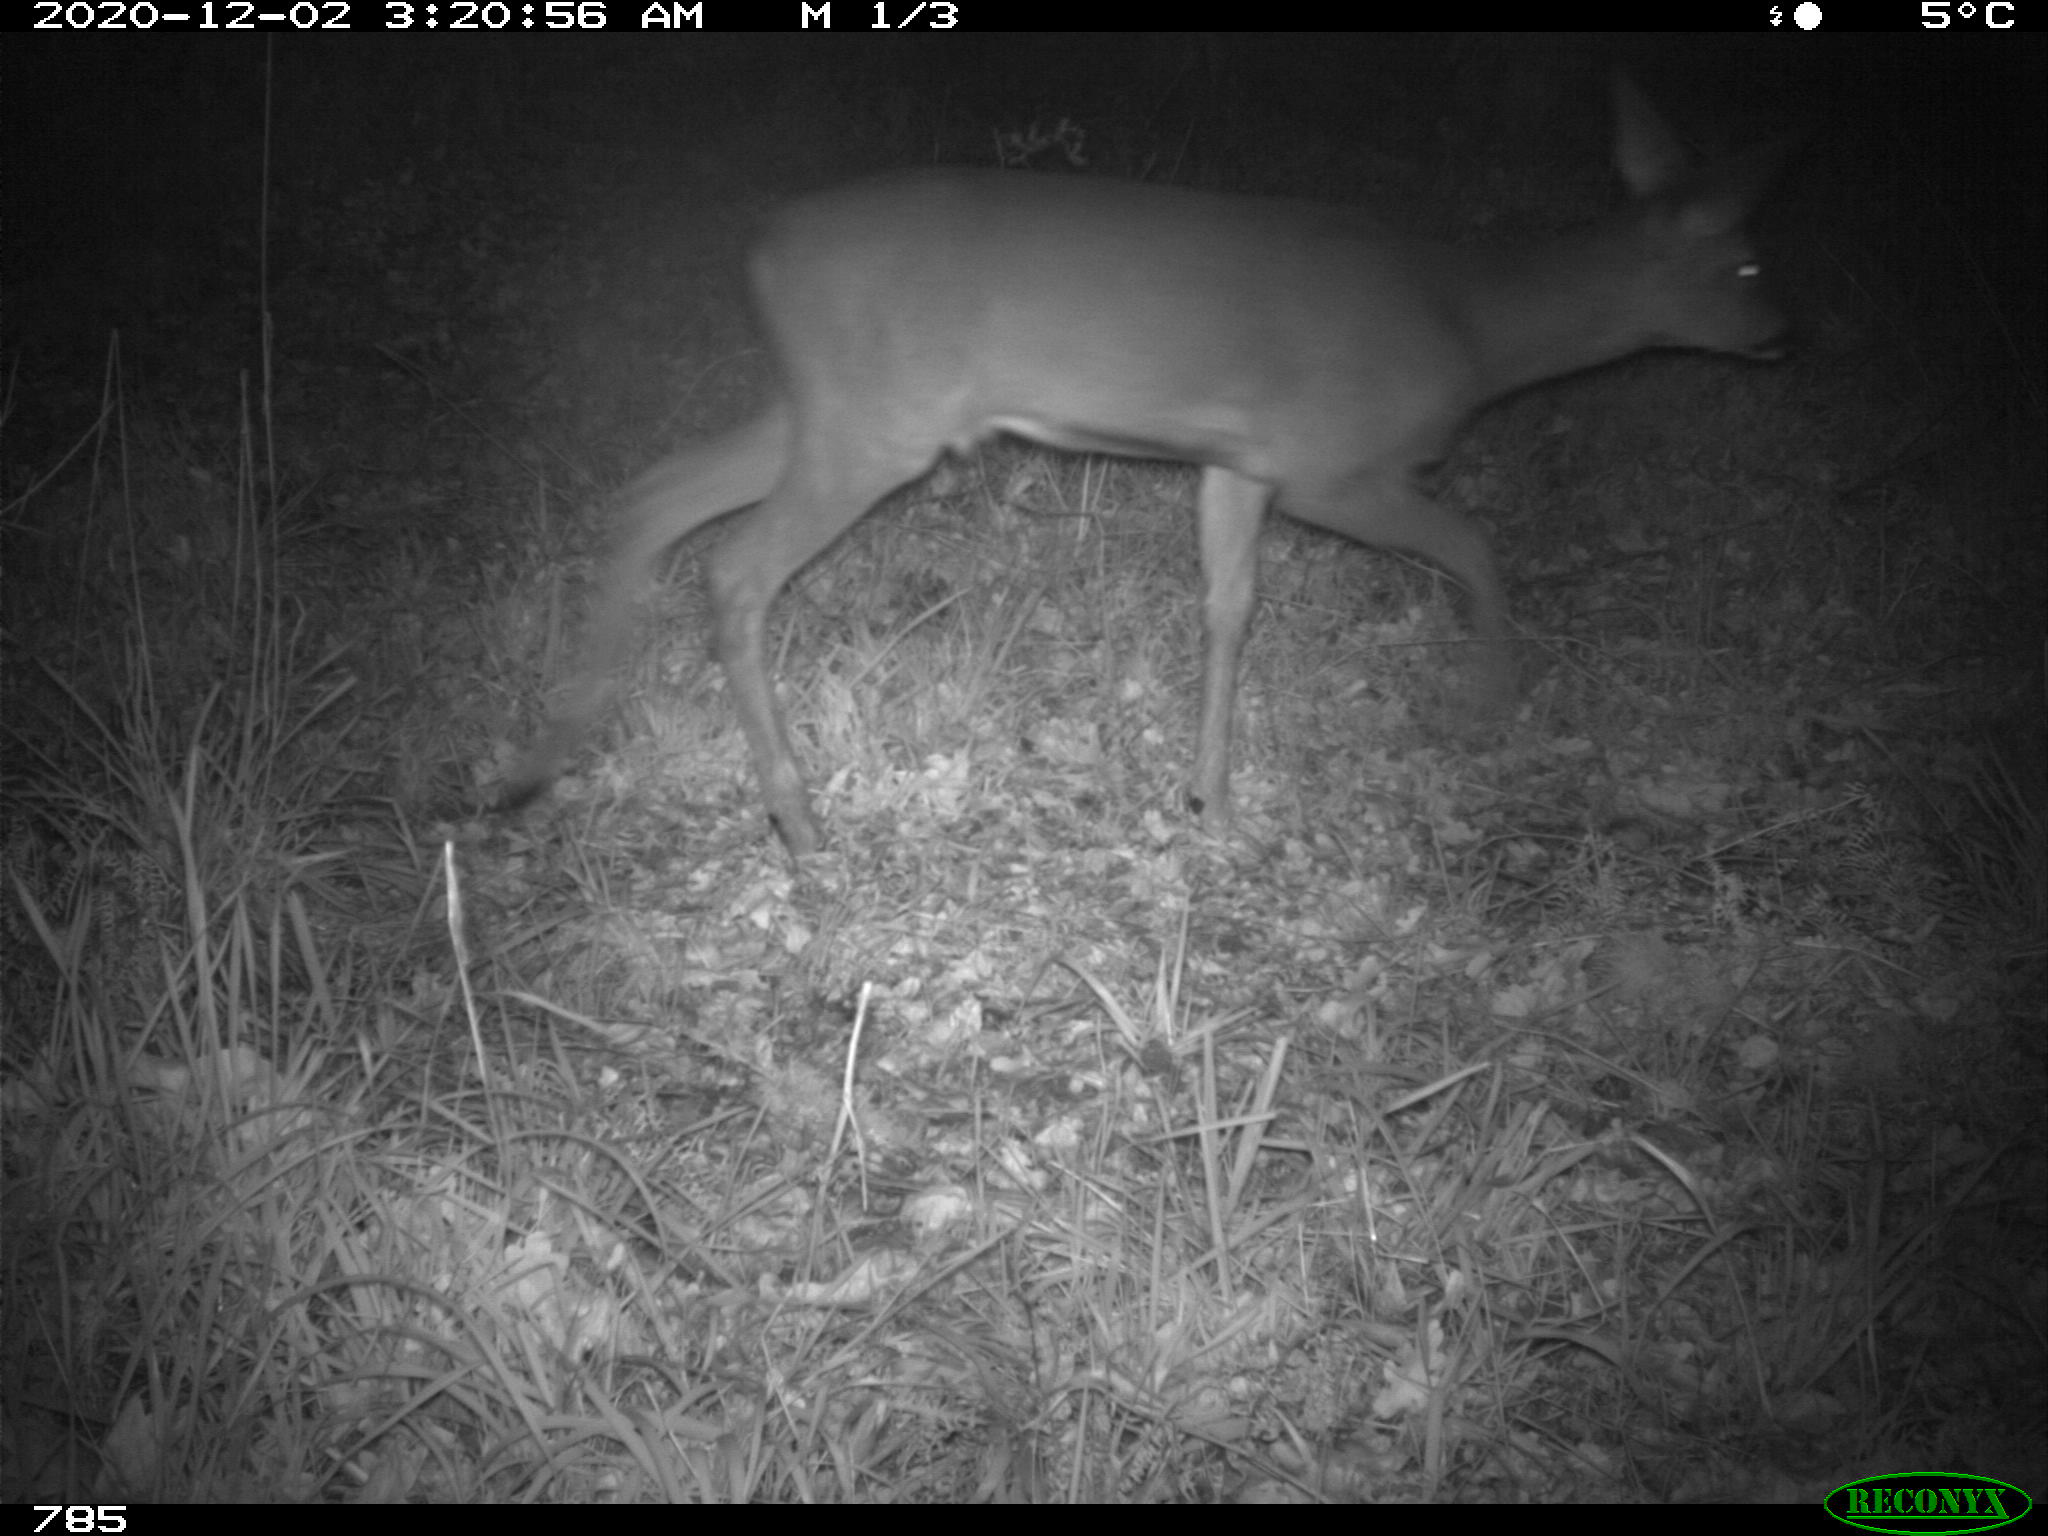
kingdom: Animalia
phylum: Chordata
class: Mammalia
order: Artiodactyla
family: Cervidae
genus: Capreolus
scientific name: Capreolus capreolus
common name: Western roe deer
